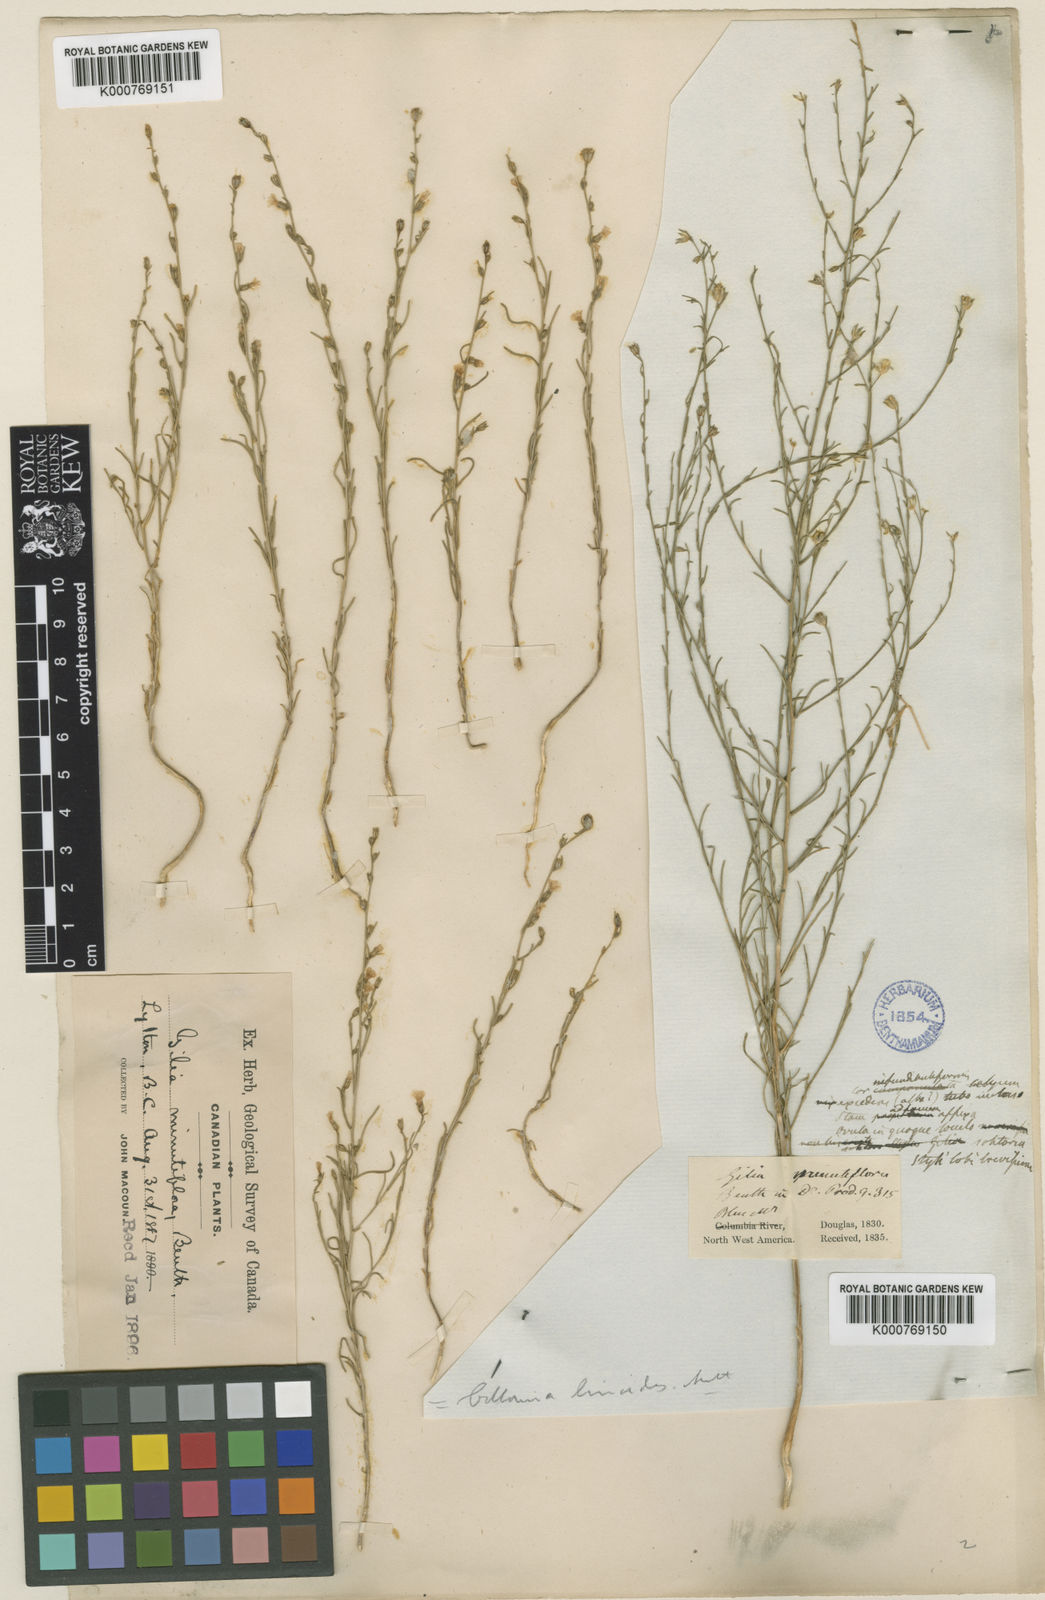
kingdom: Plantae
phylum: Tracheophyta
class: Magnoliopsida
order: Ericales
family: Polemoniaceae
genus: Microgilia
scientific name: Microgilia minutiflora
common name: Small-flowered gilia
